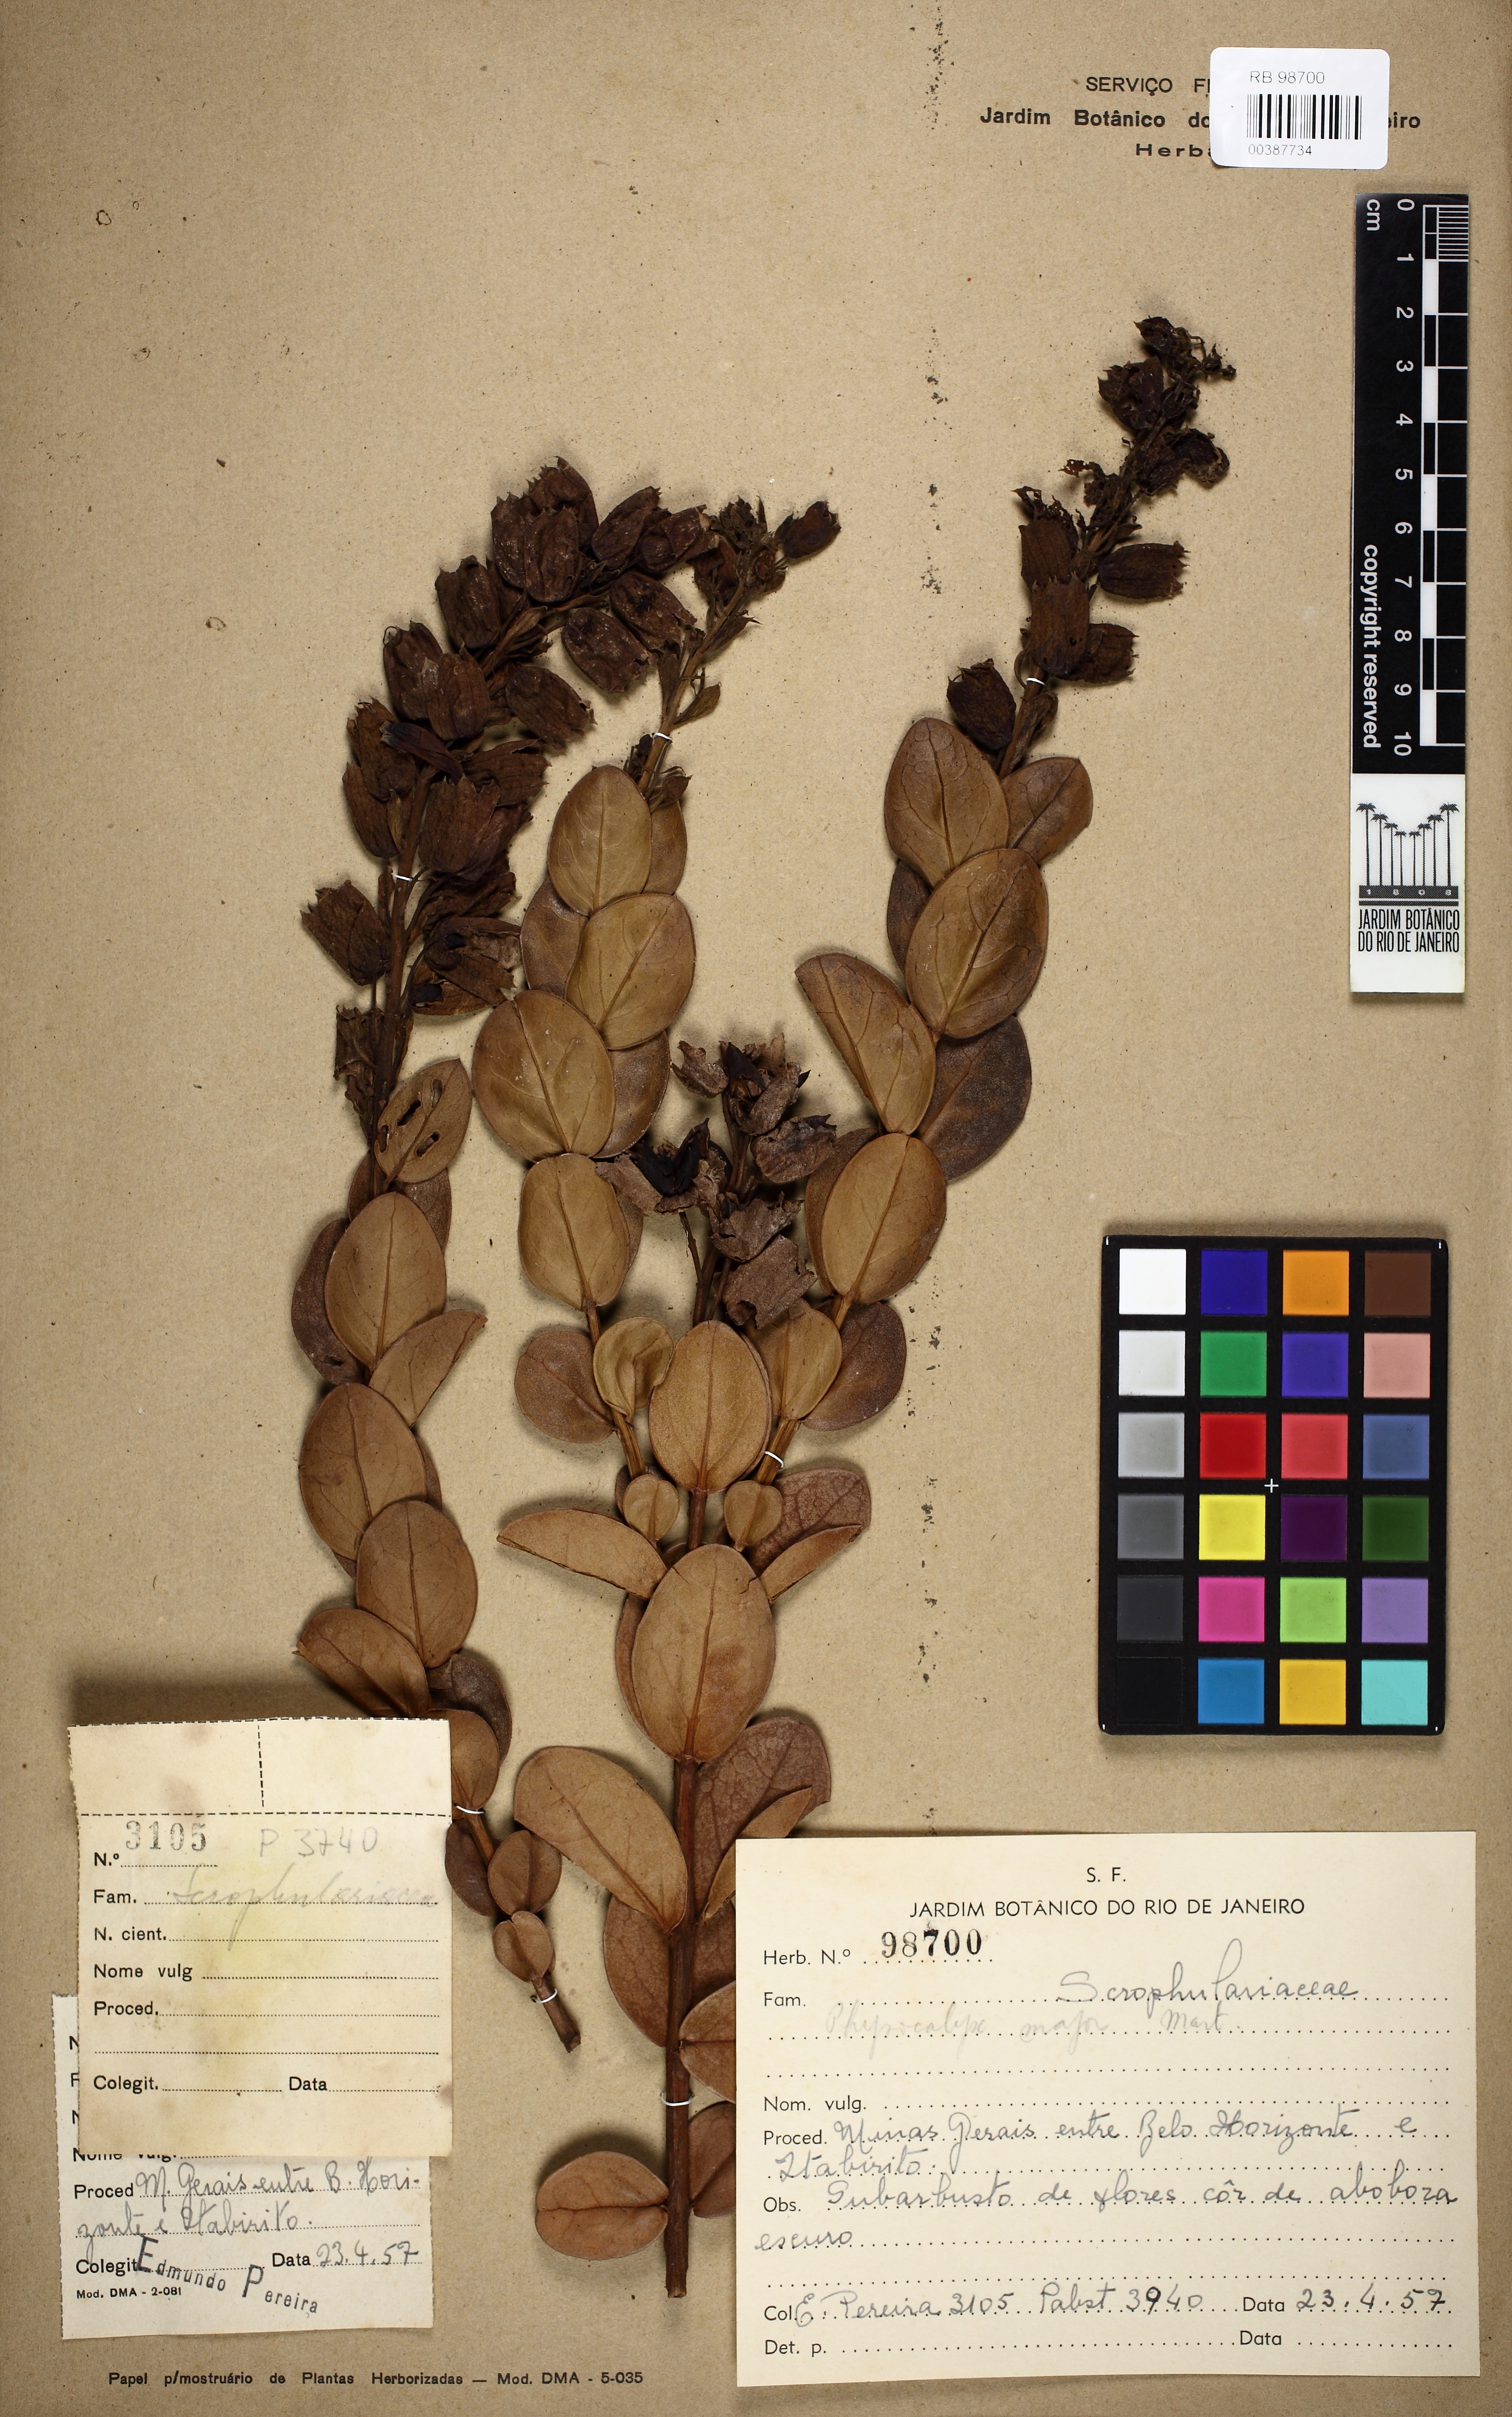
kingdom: Plantae
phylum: Tracheophyta
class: Magnoliopsida
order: Lamiales
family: Orobanchaceae
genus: Physocalyx
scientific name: Physocalyx major
